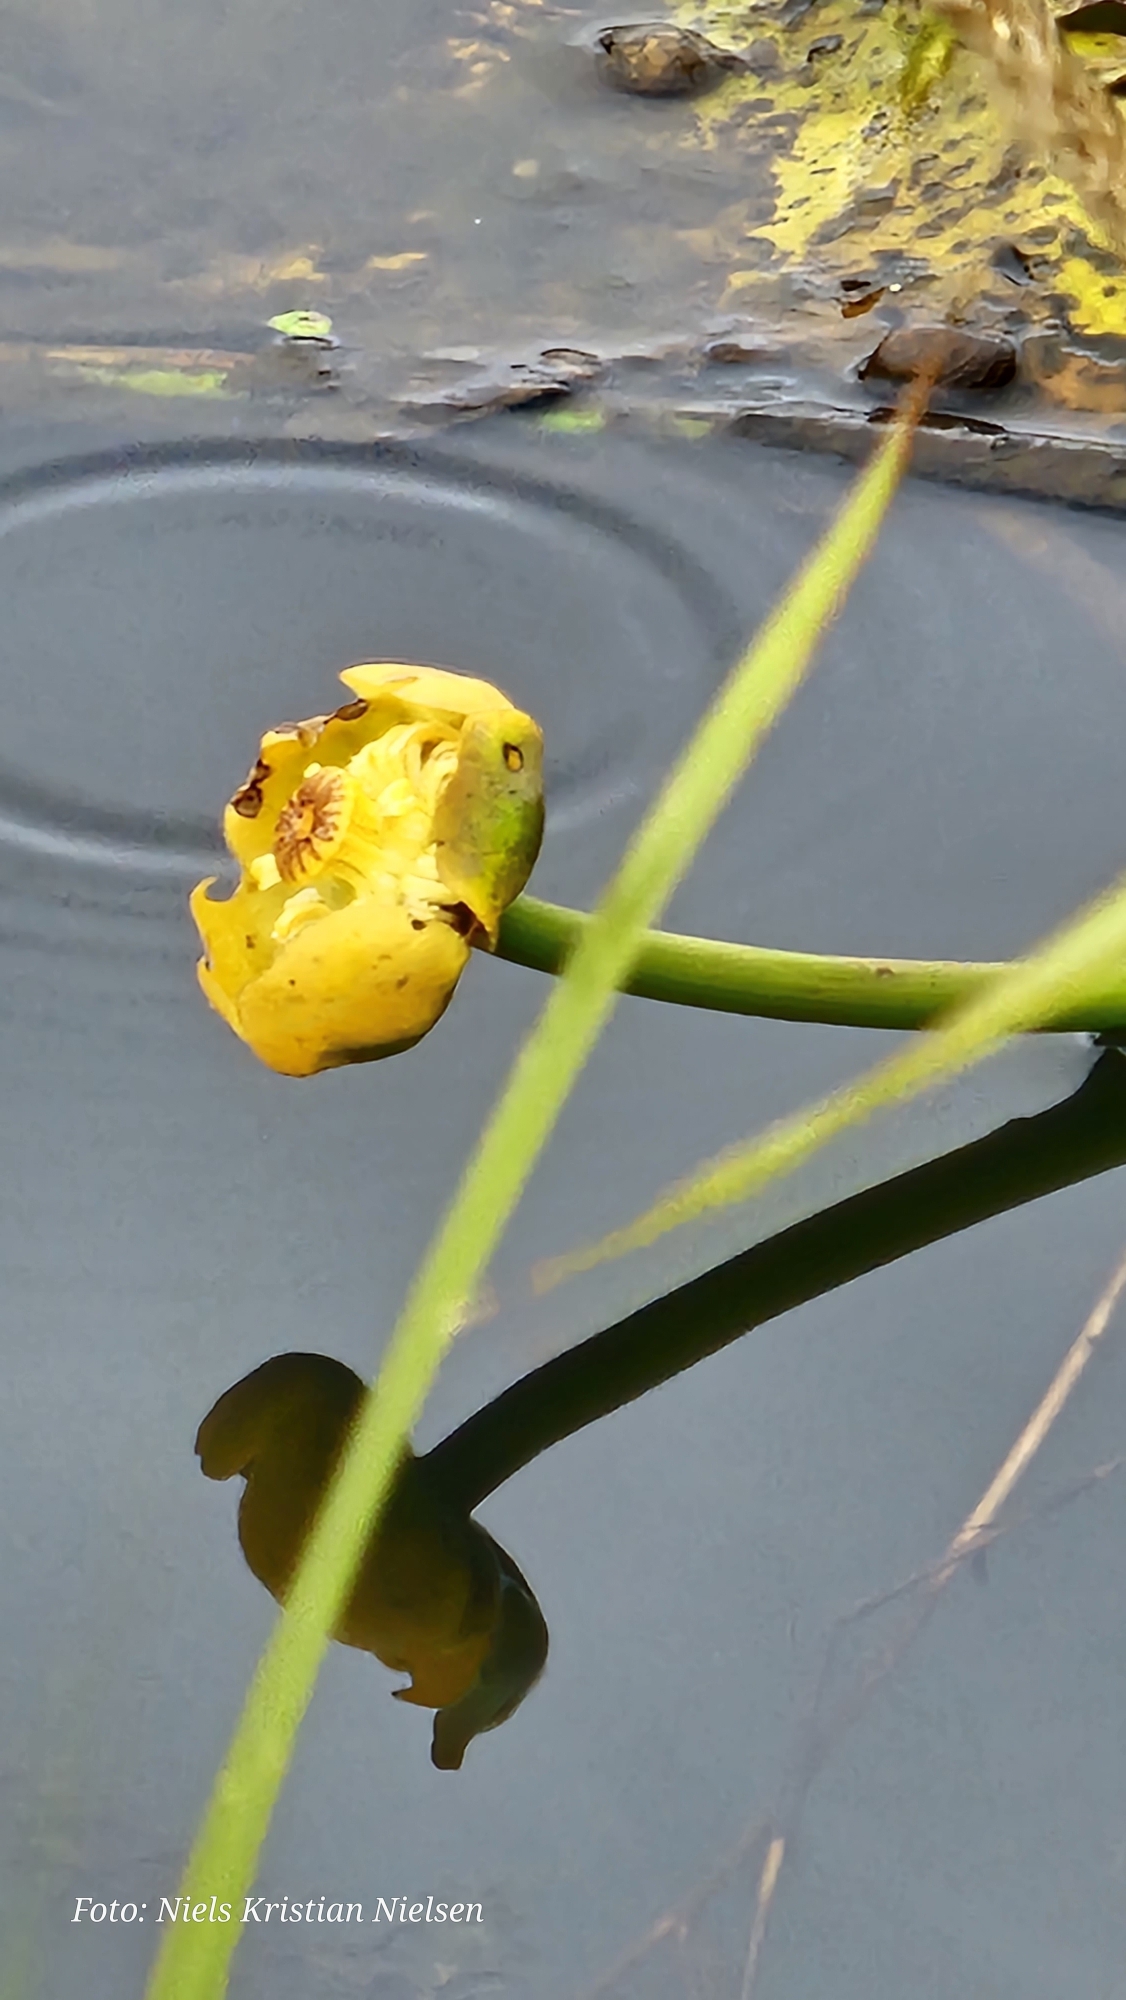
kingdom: Plantae
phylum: Tracheophyta
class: Magnoliopsida
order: Nymphaeales
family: Nymphaeaceae
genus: Nuphar
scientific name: Nuphar lutea
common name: Gul åkande
